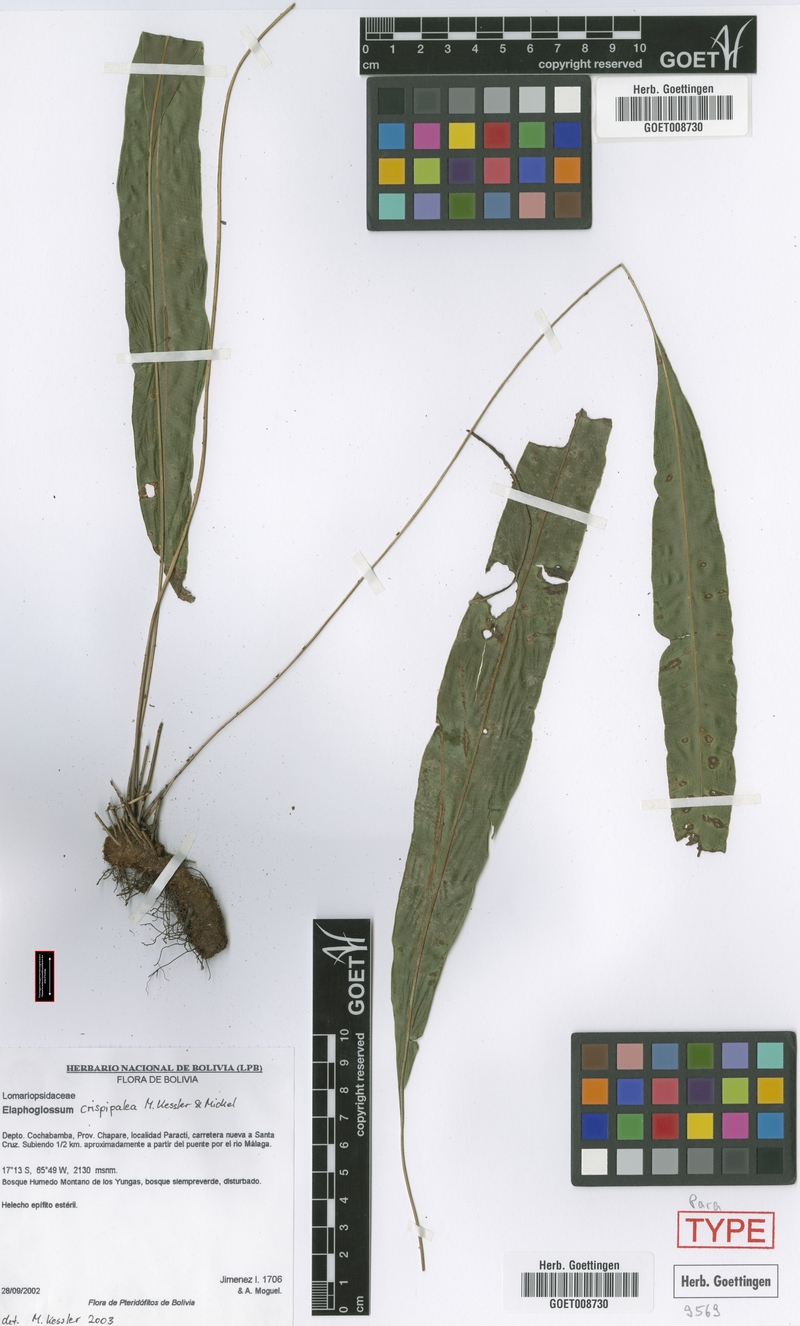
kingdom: Plantae
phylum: Tracheophyta
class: Polypodiopsida
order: Polypodiales
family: Dryopteridaceae
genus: Elaphoglossum
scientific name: Elaphoglossum miersii
